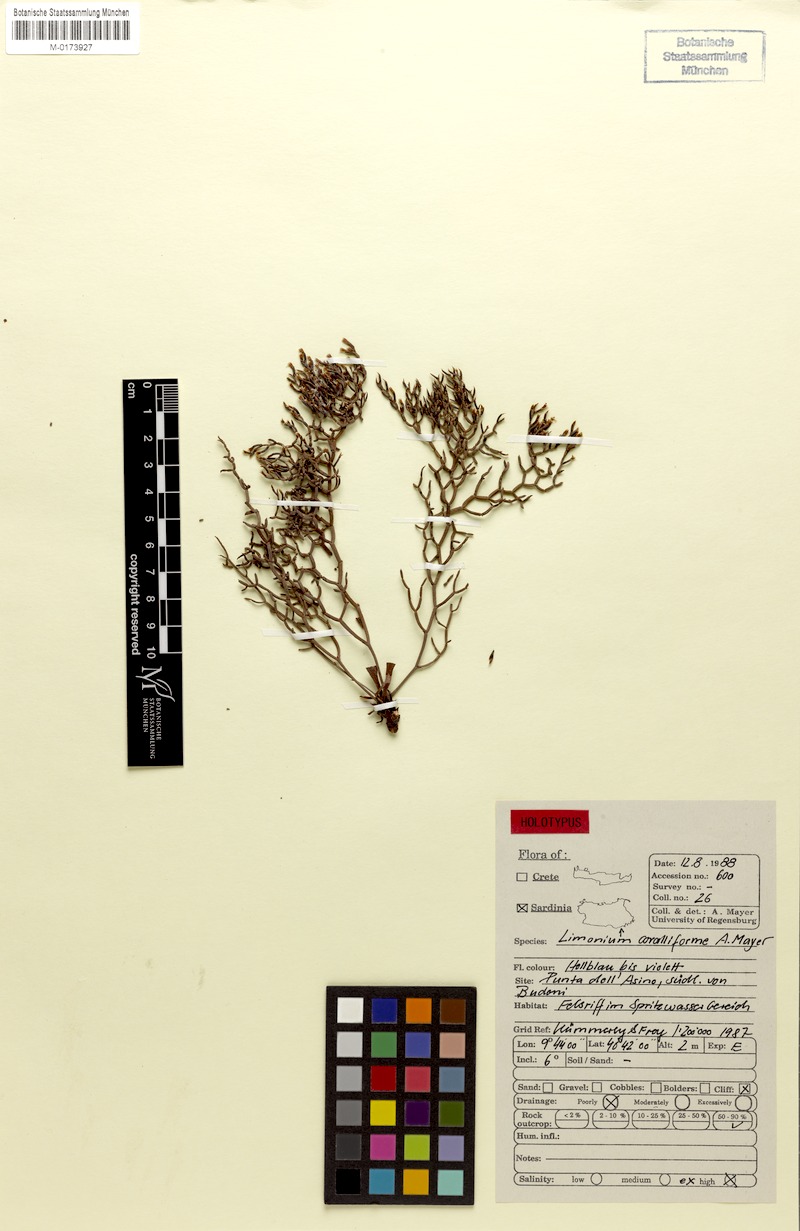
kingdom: Plantae
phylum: Tracheophyta
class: Magnoliopsida
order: Caryophyllales
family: Plumbaginaceae
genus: Limonium
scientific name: Limonium coralliforme
